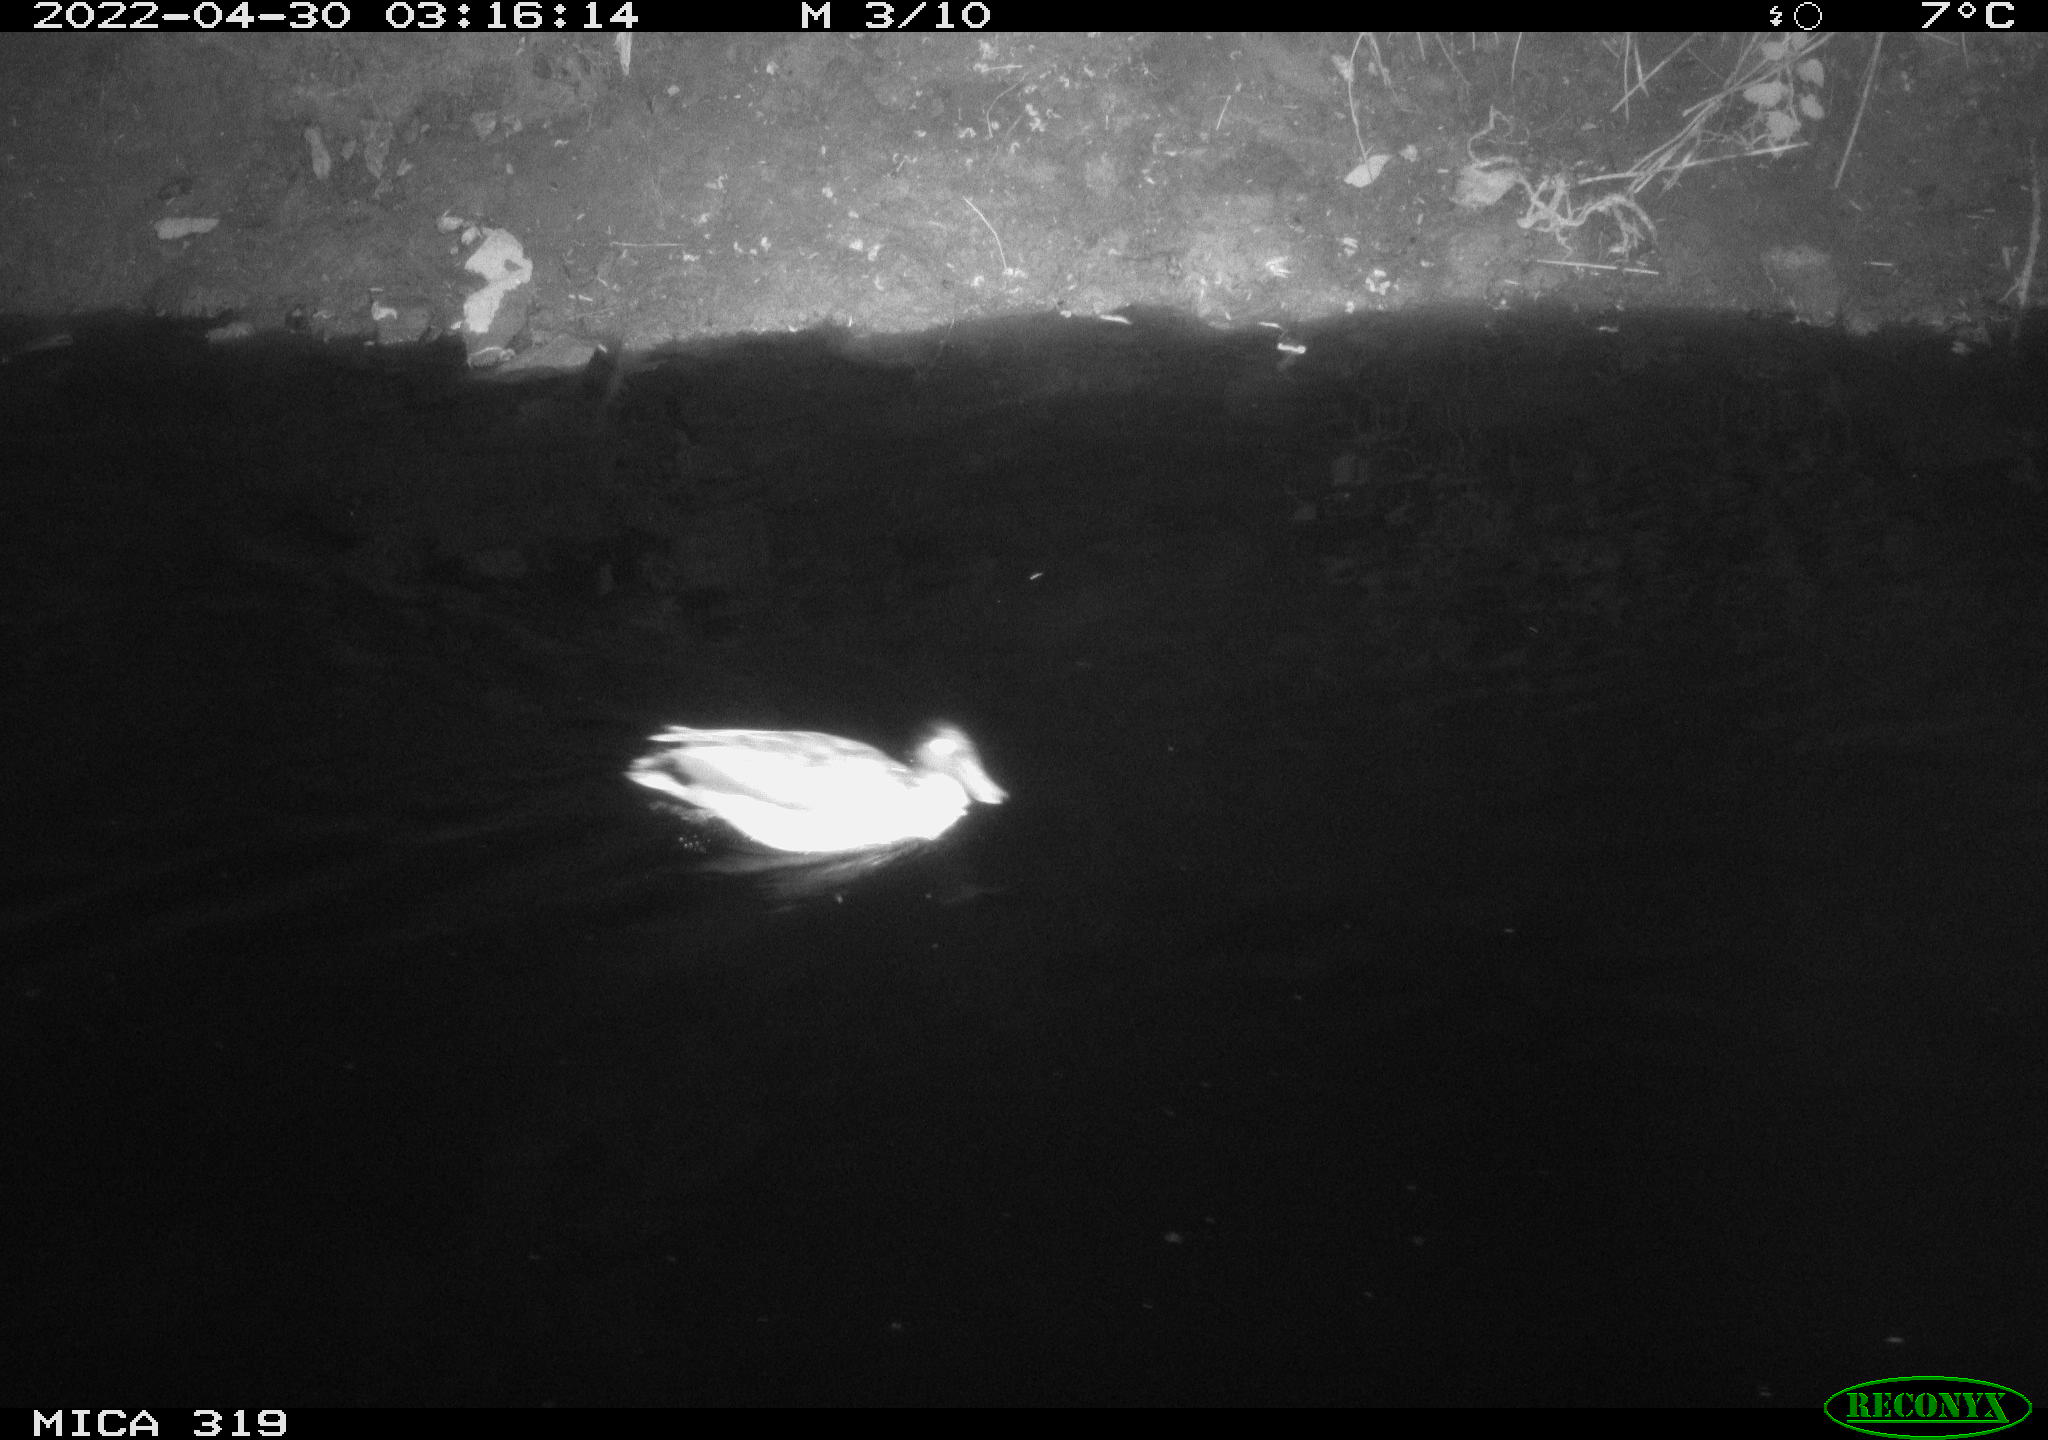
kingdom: Animalia
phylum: Chordata
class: Aves
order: Anseriformes
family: Anatidae
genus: Anas
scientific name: Anas platyrhynchos
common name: Mallard
